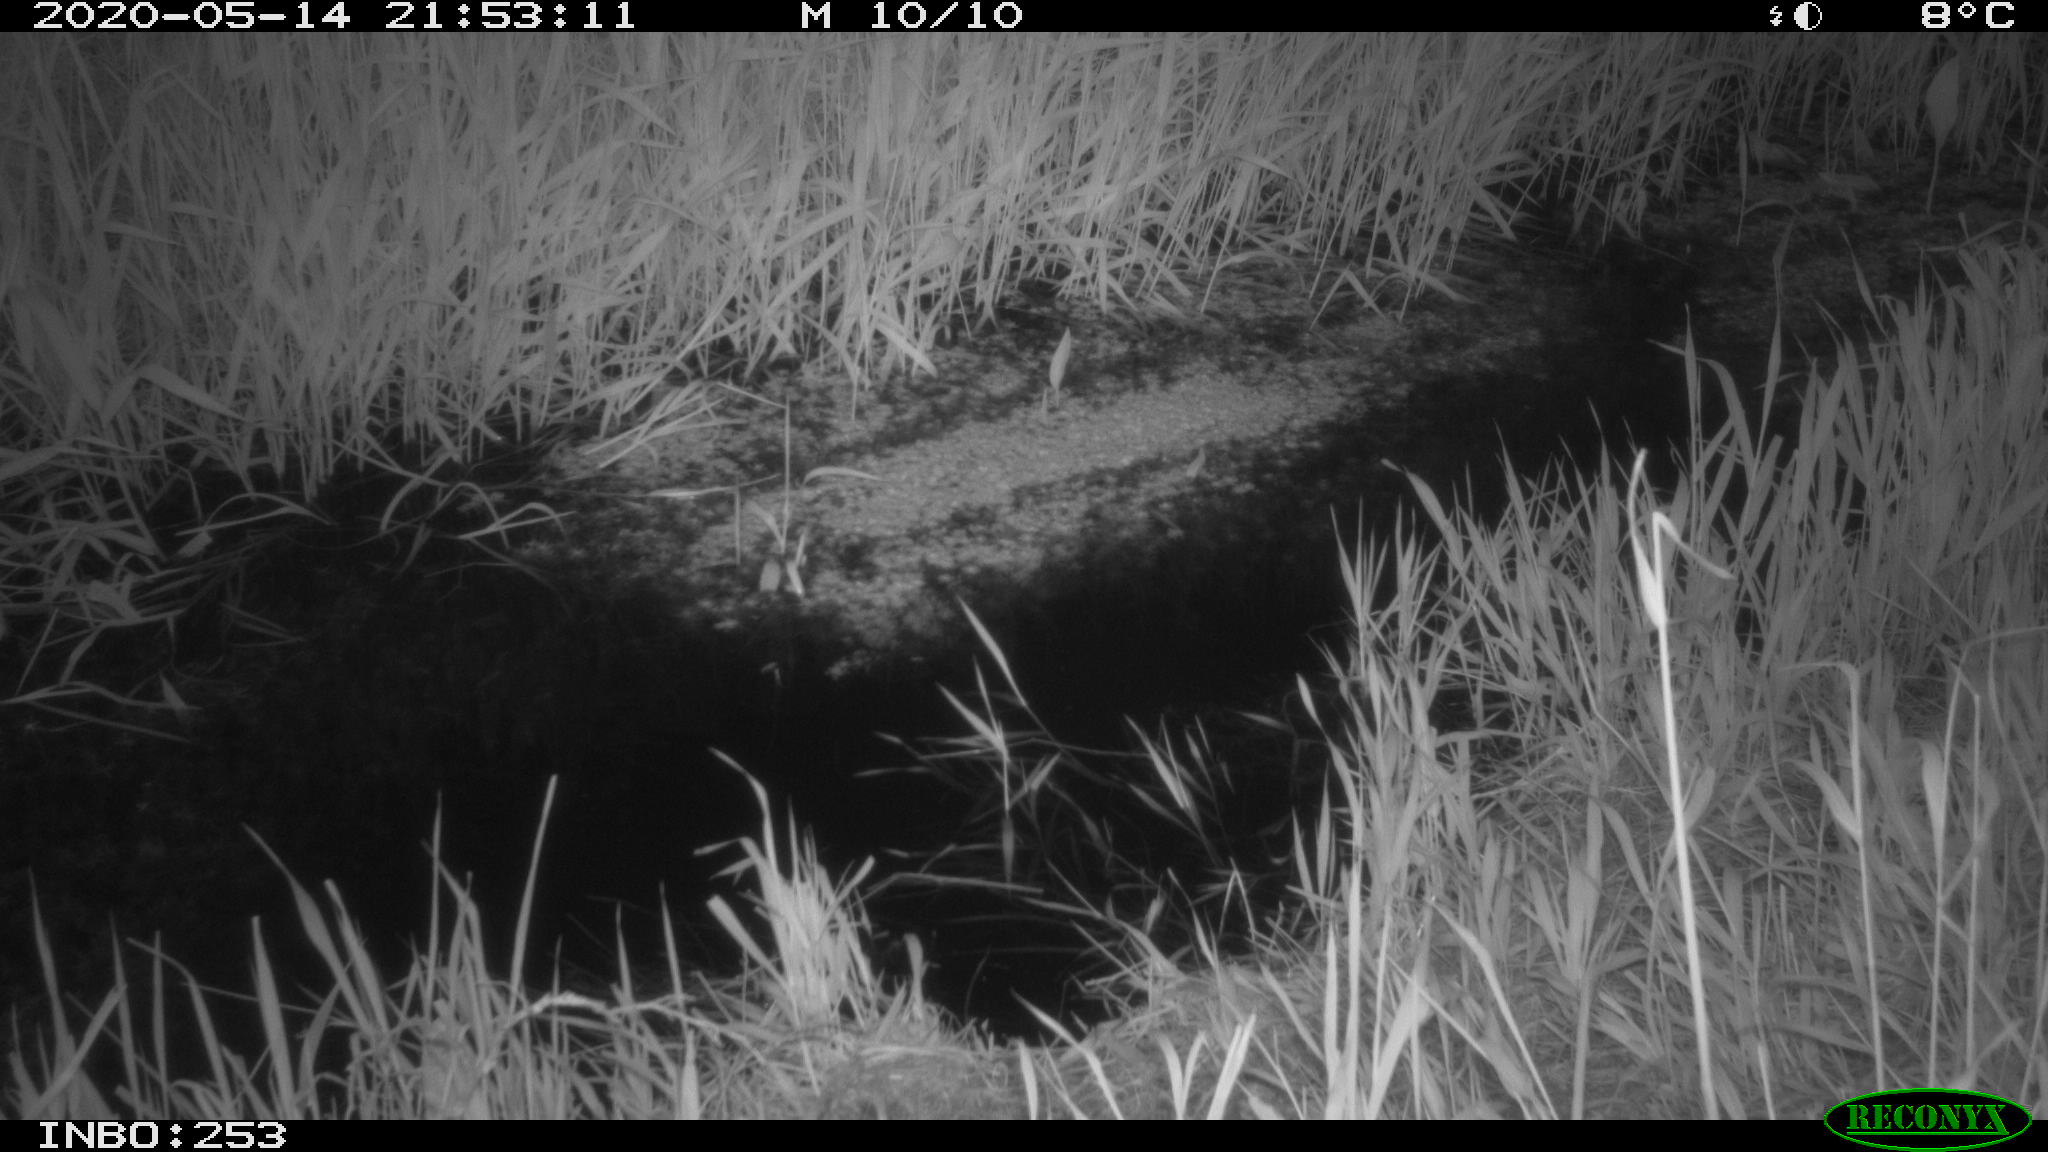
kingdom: Animalia
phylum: Chordata
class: Aves
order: Anseriformes
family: Anatidae
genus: Anas
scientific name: Anas platyrhynchos
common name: Mallard
